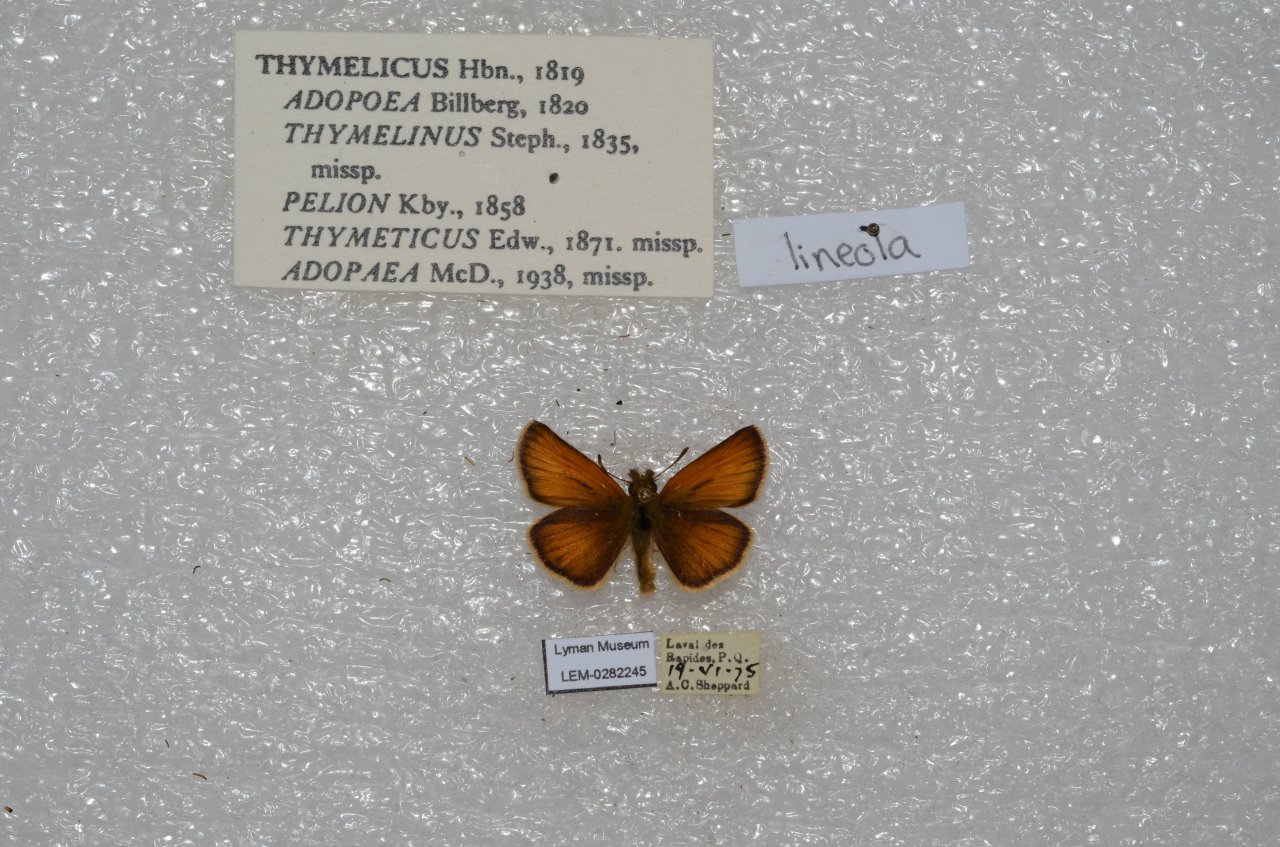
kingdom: Animalia
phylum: Arthropoda
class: Insecta
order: Lepidoptera
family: Hesperiidae
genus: Thymelicus
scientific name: Thymelicus lineola
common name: European Skipper
